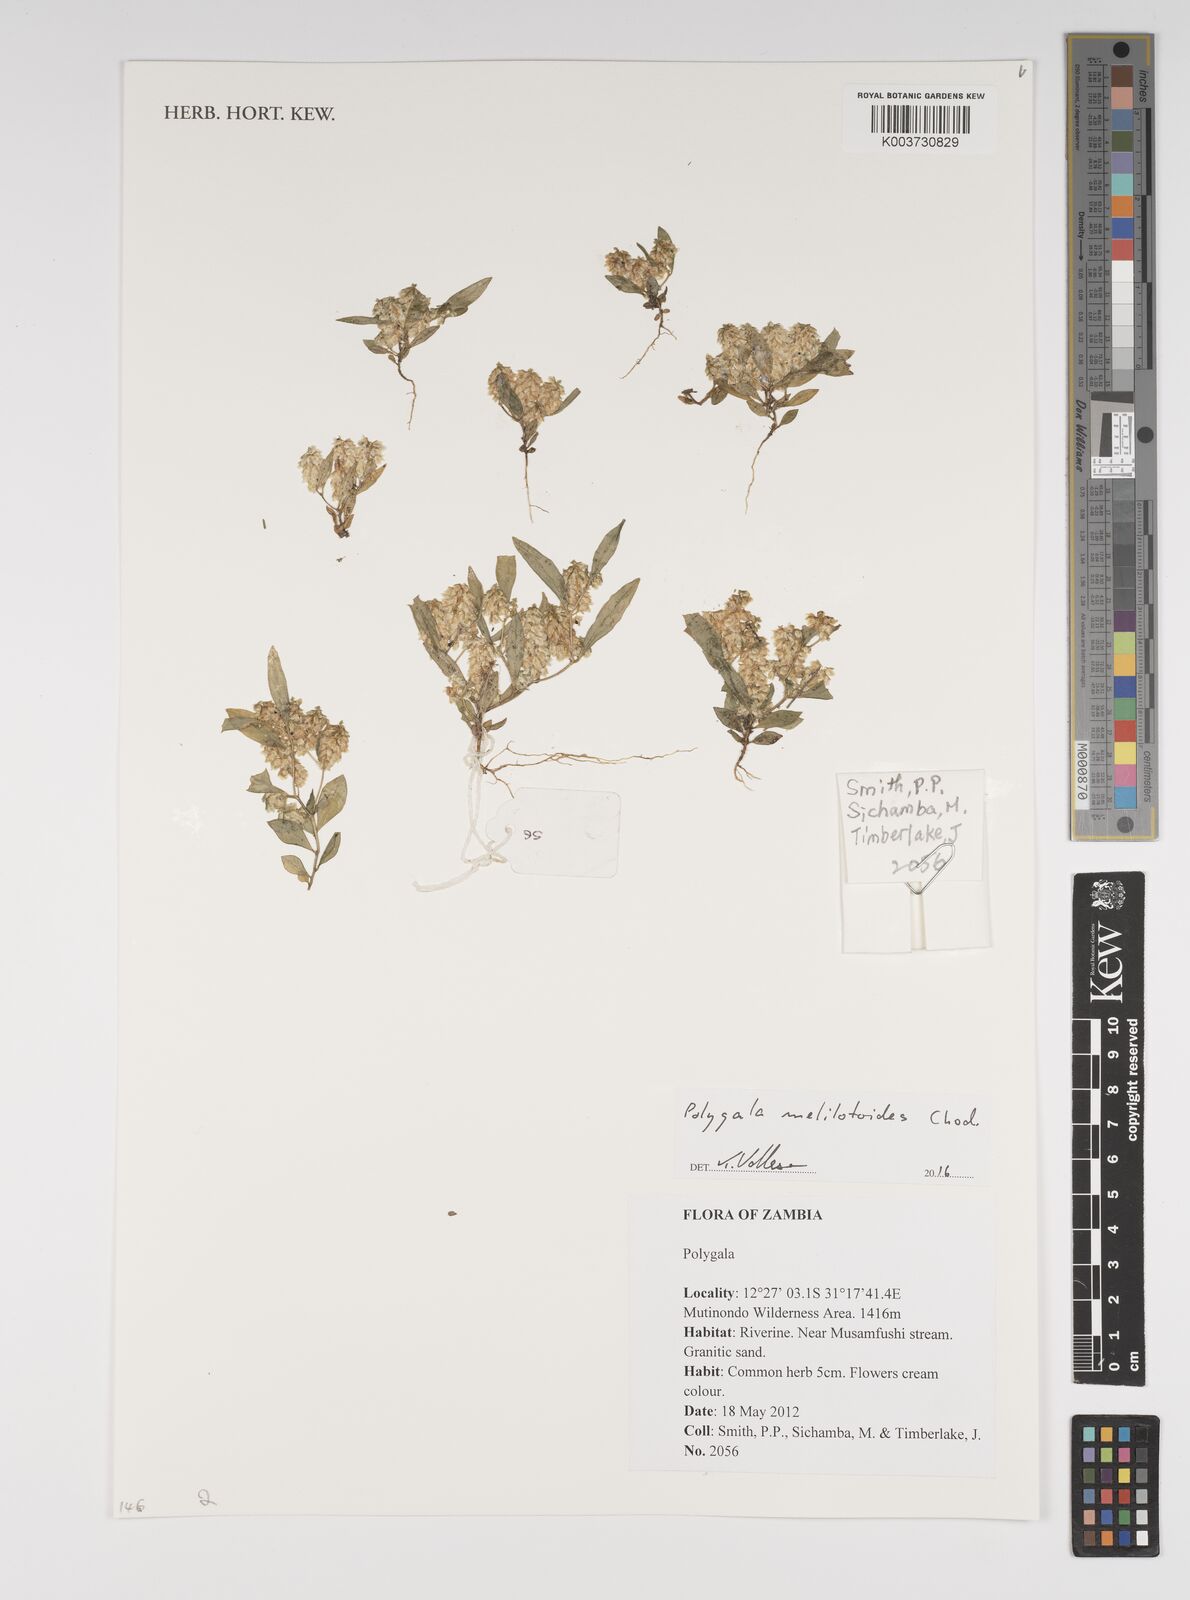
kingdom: Plantae
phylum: Tracheophyta
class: Magnoliopsida
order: Fabales
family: Polygalaceae
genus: Polygala
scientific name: Polygala melilotoides
